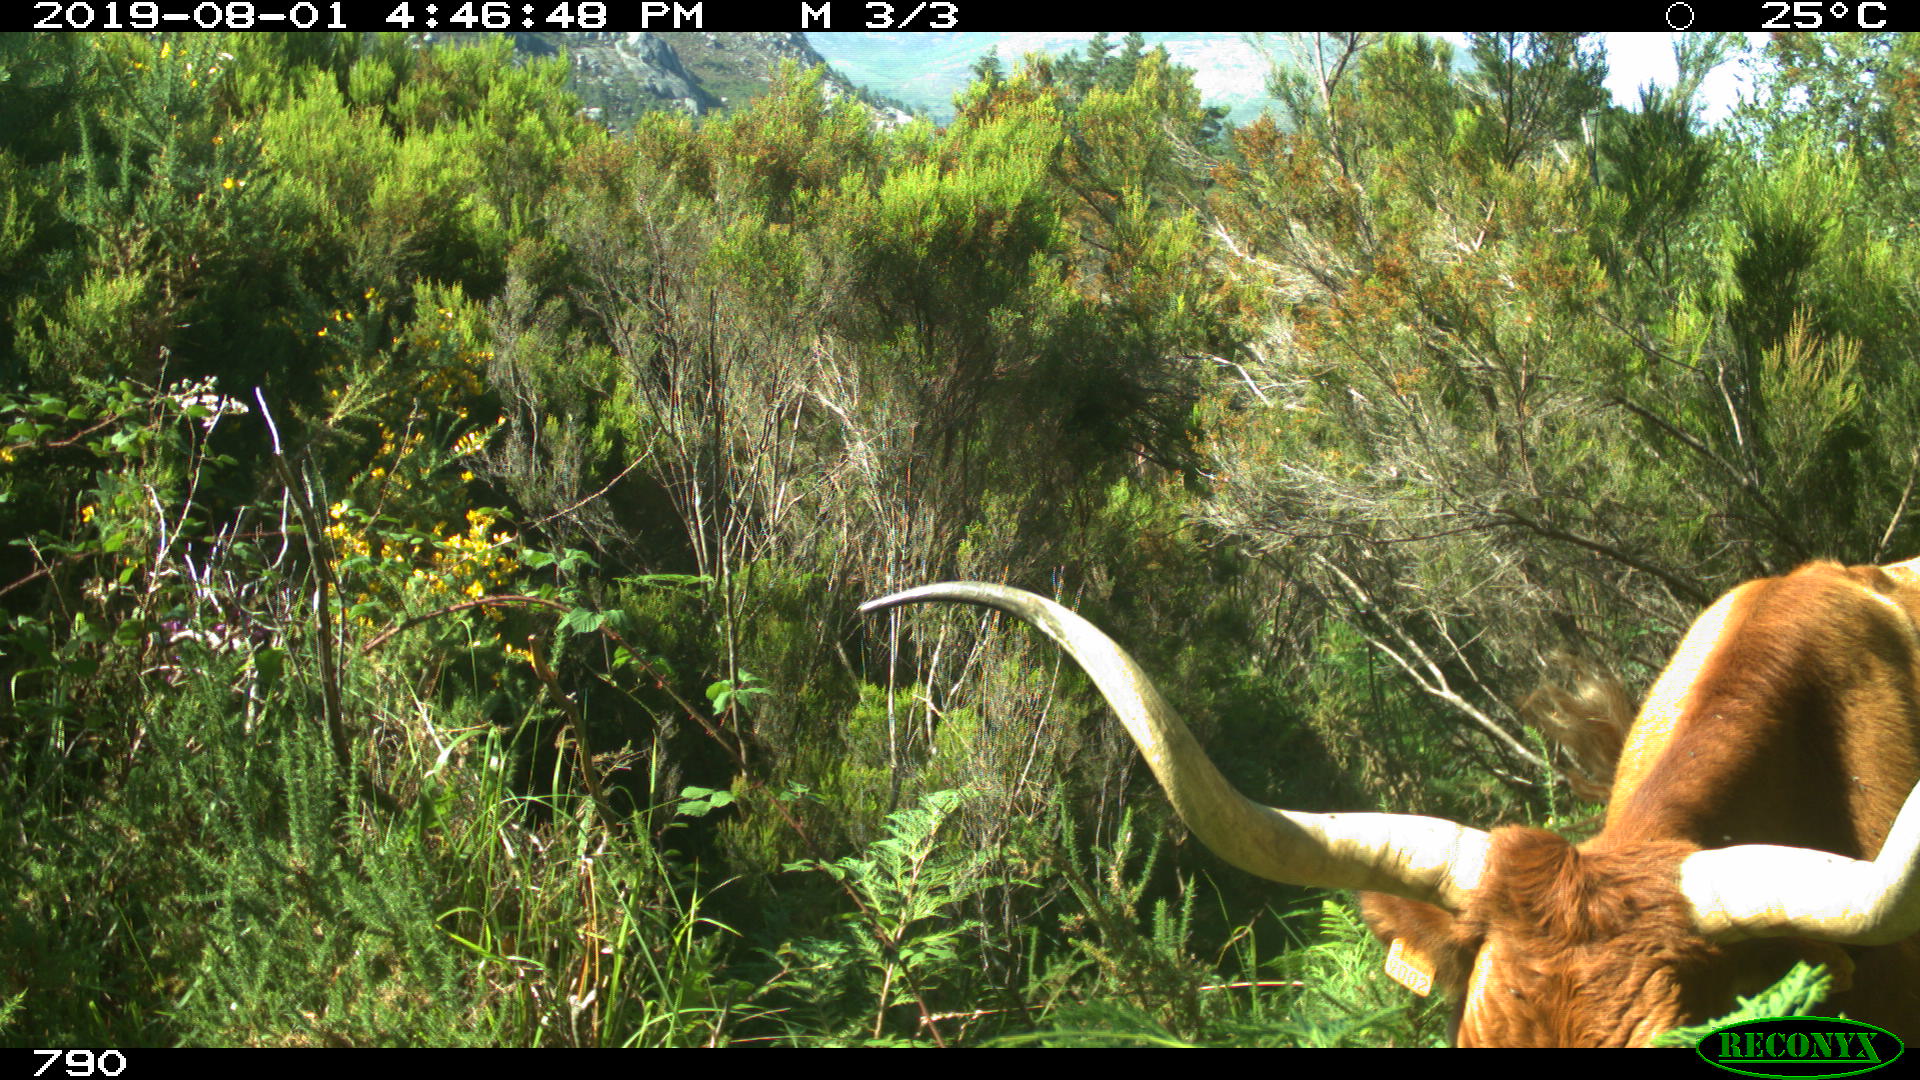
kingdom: Animalia
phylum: Chordata
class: Mammalia
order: Artiodactyla
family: Bovidae
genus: Bos
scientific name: Bos taurus
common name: Domesticated cattle
